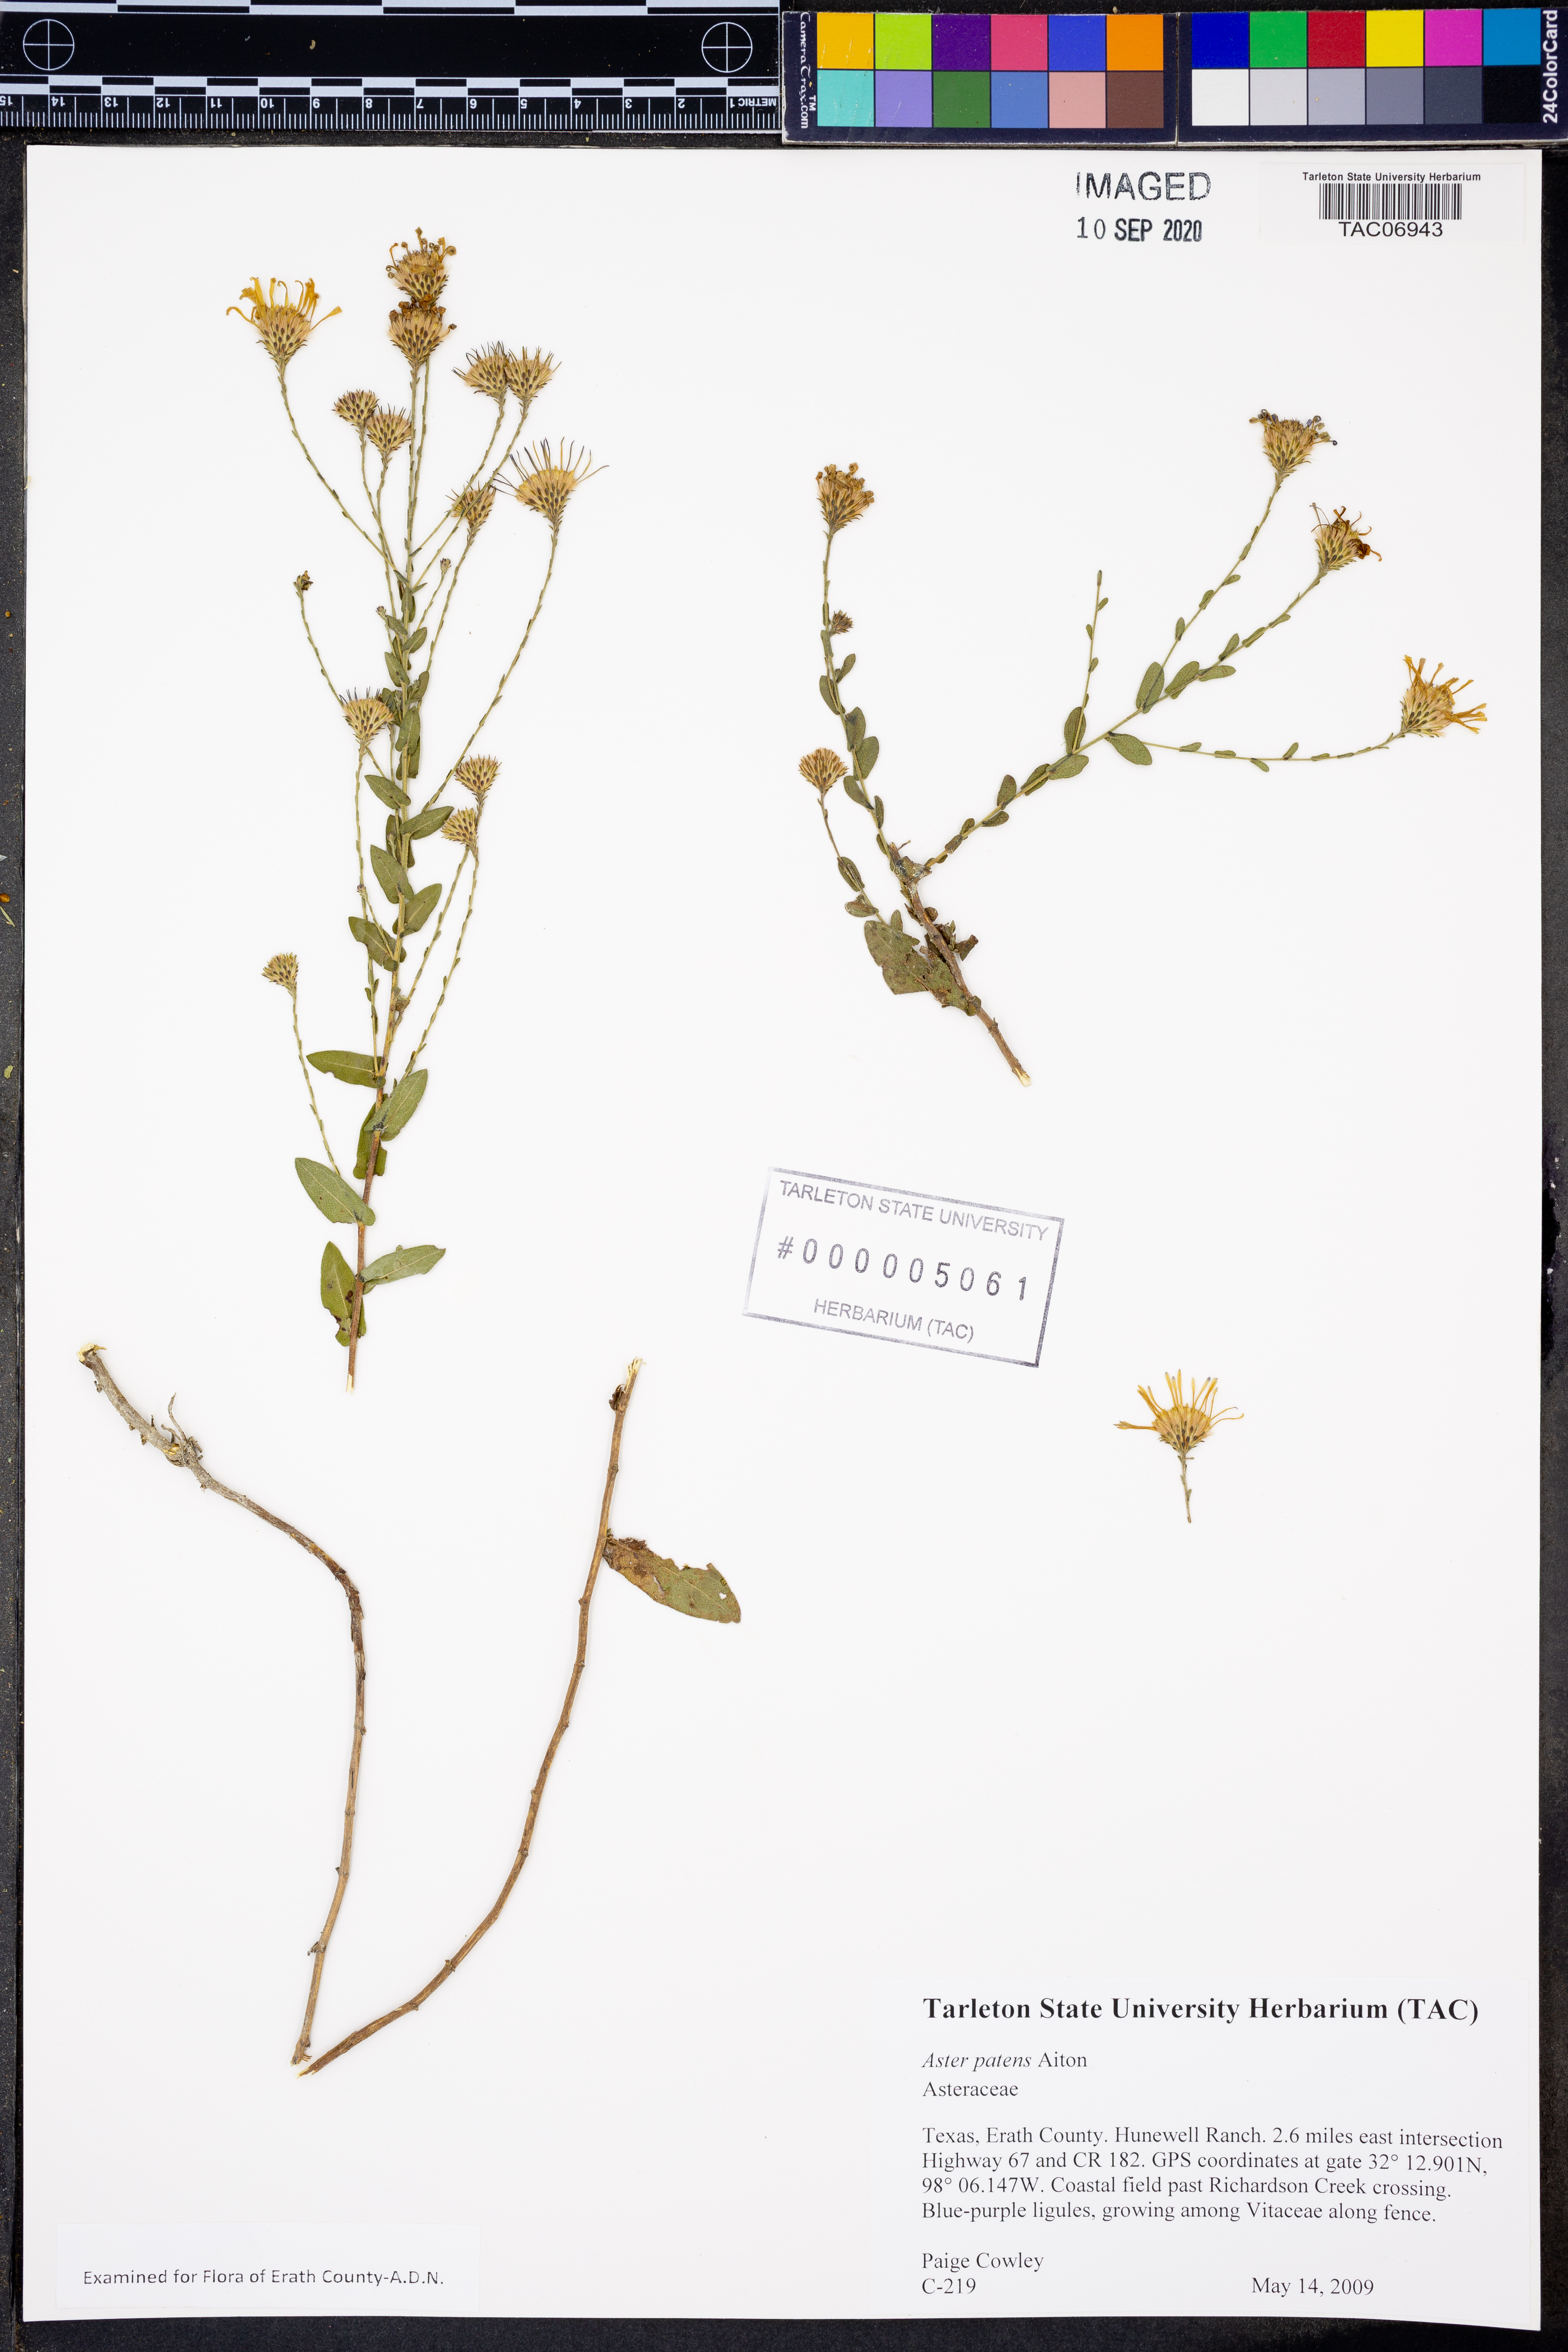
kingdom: Plantae
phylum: Tracheophyta
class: Magnoliopsida
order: Asterales
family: Asteraceae
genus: Symphyotrichum
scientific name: Symphyotrichum patens
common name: Late purple aster
